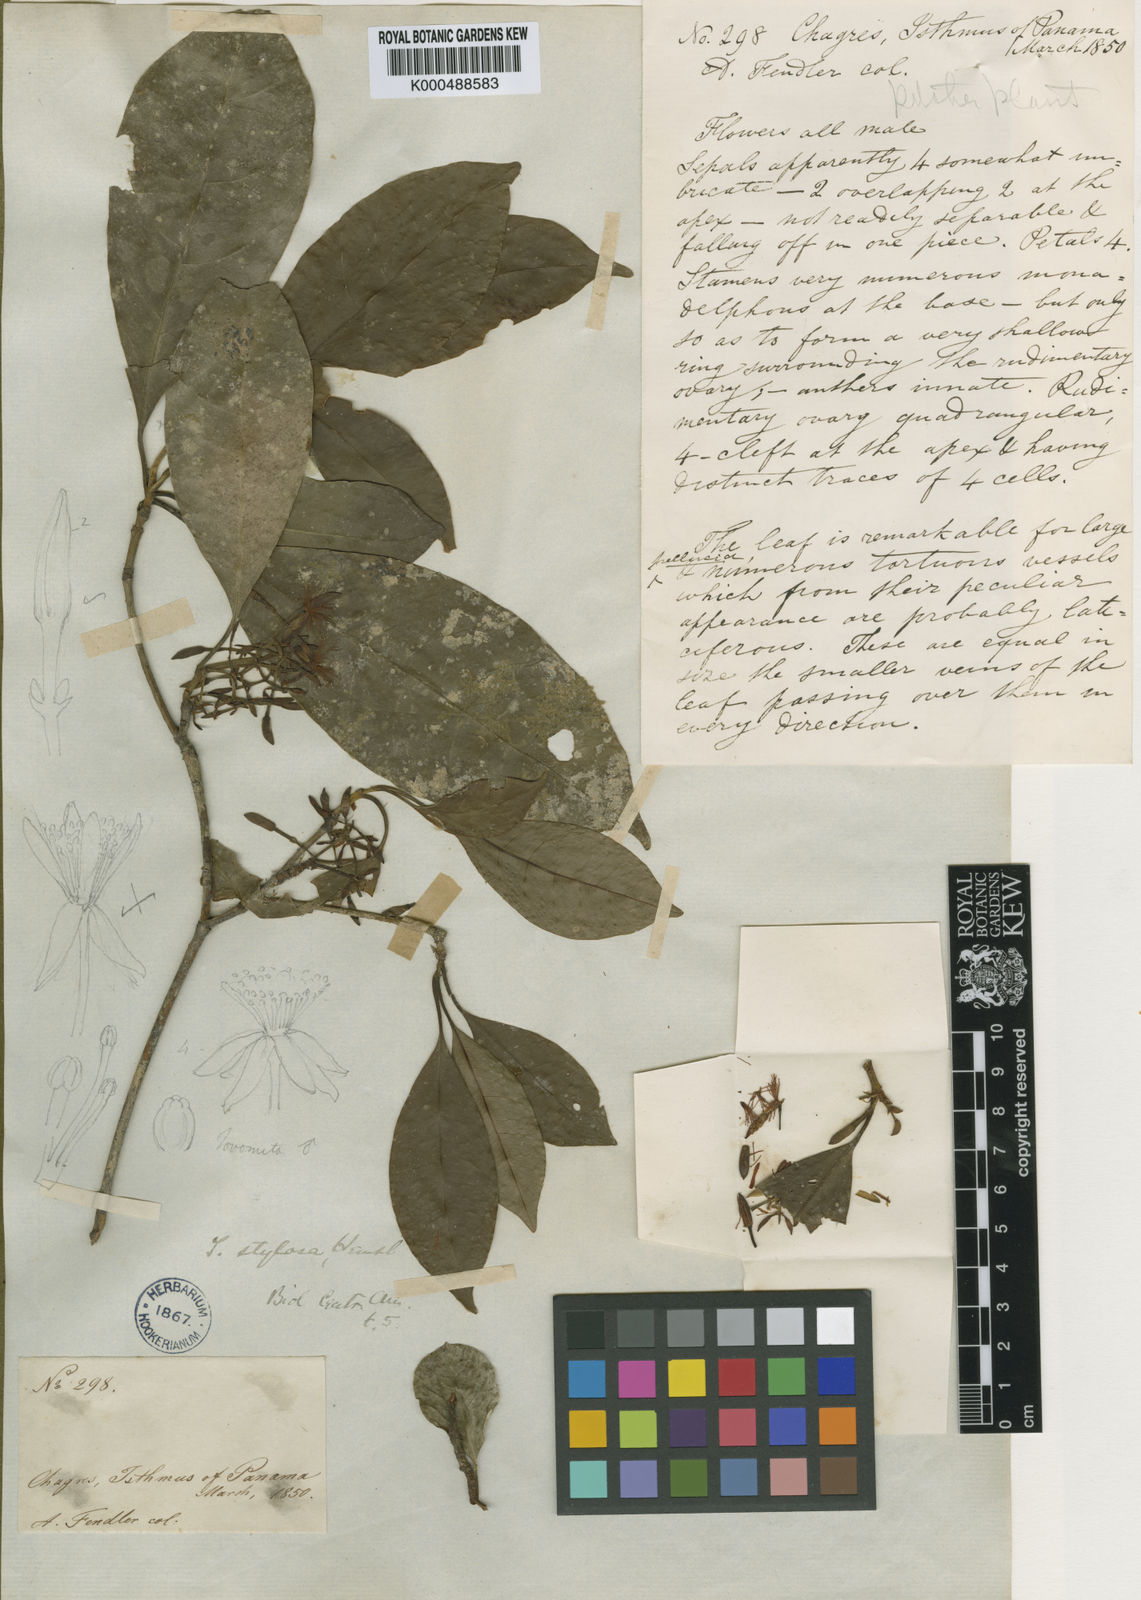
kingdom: Plantae
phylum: Tracheophyta
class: Magnoliopsida
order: Malpighiales
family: Clusiaceae
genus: Tovomita
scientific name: Tovomita stylosa
